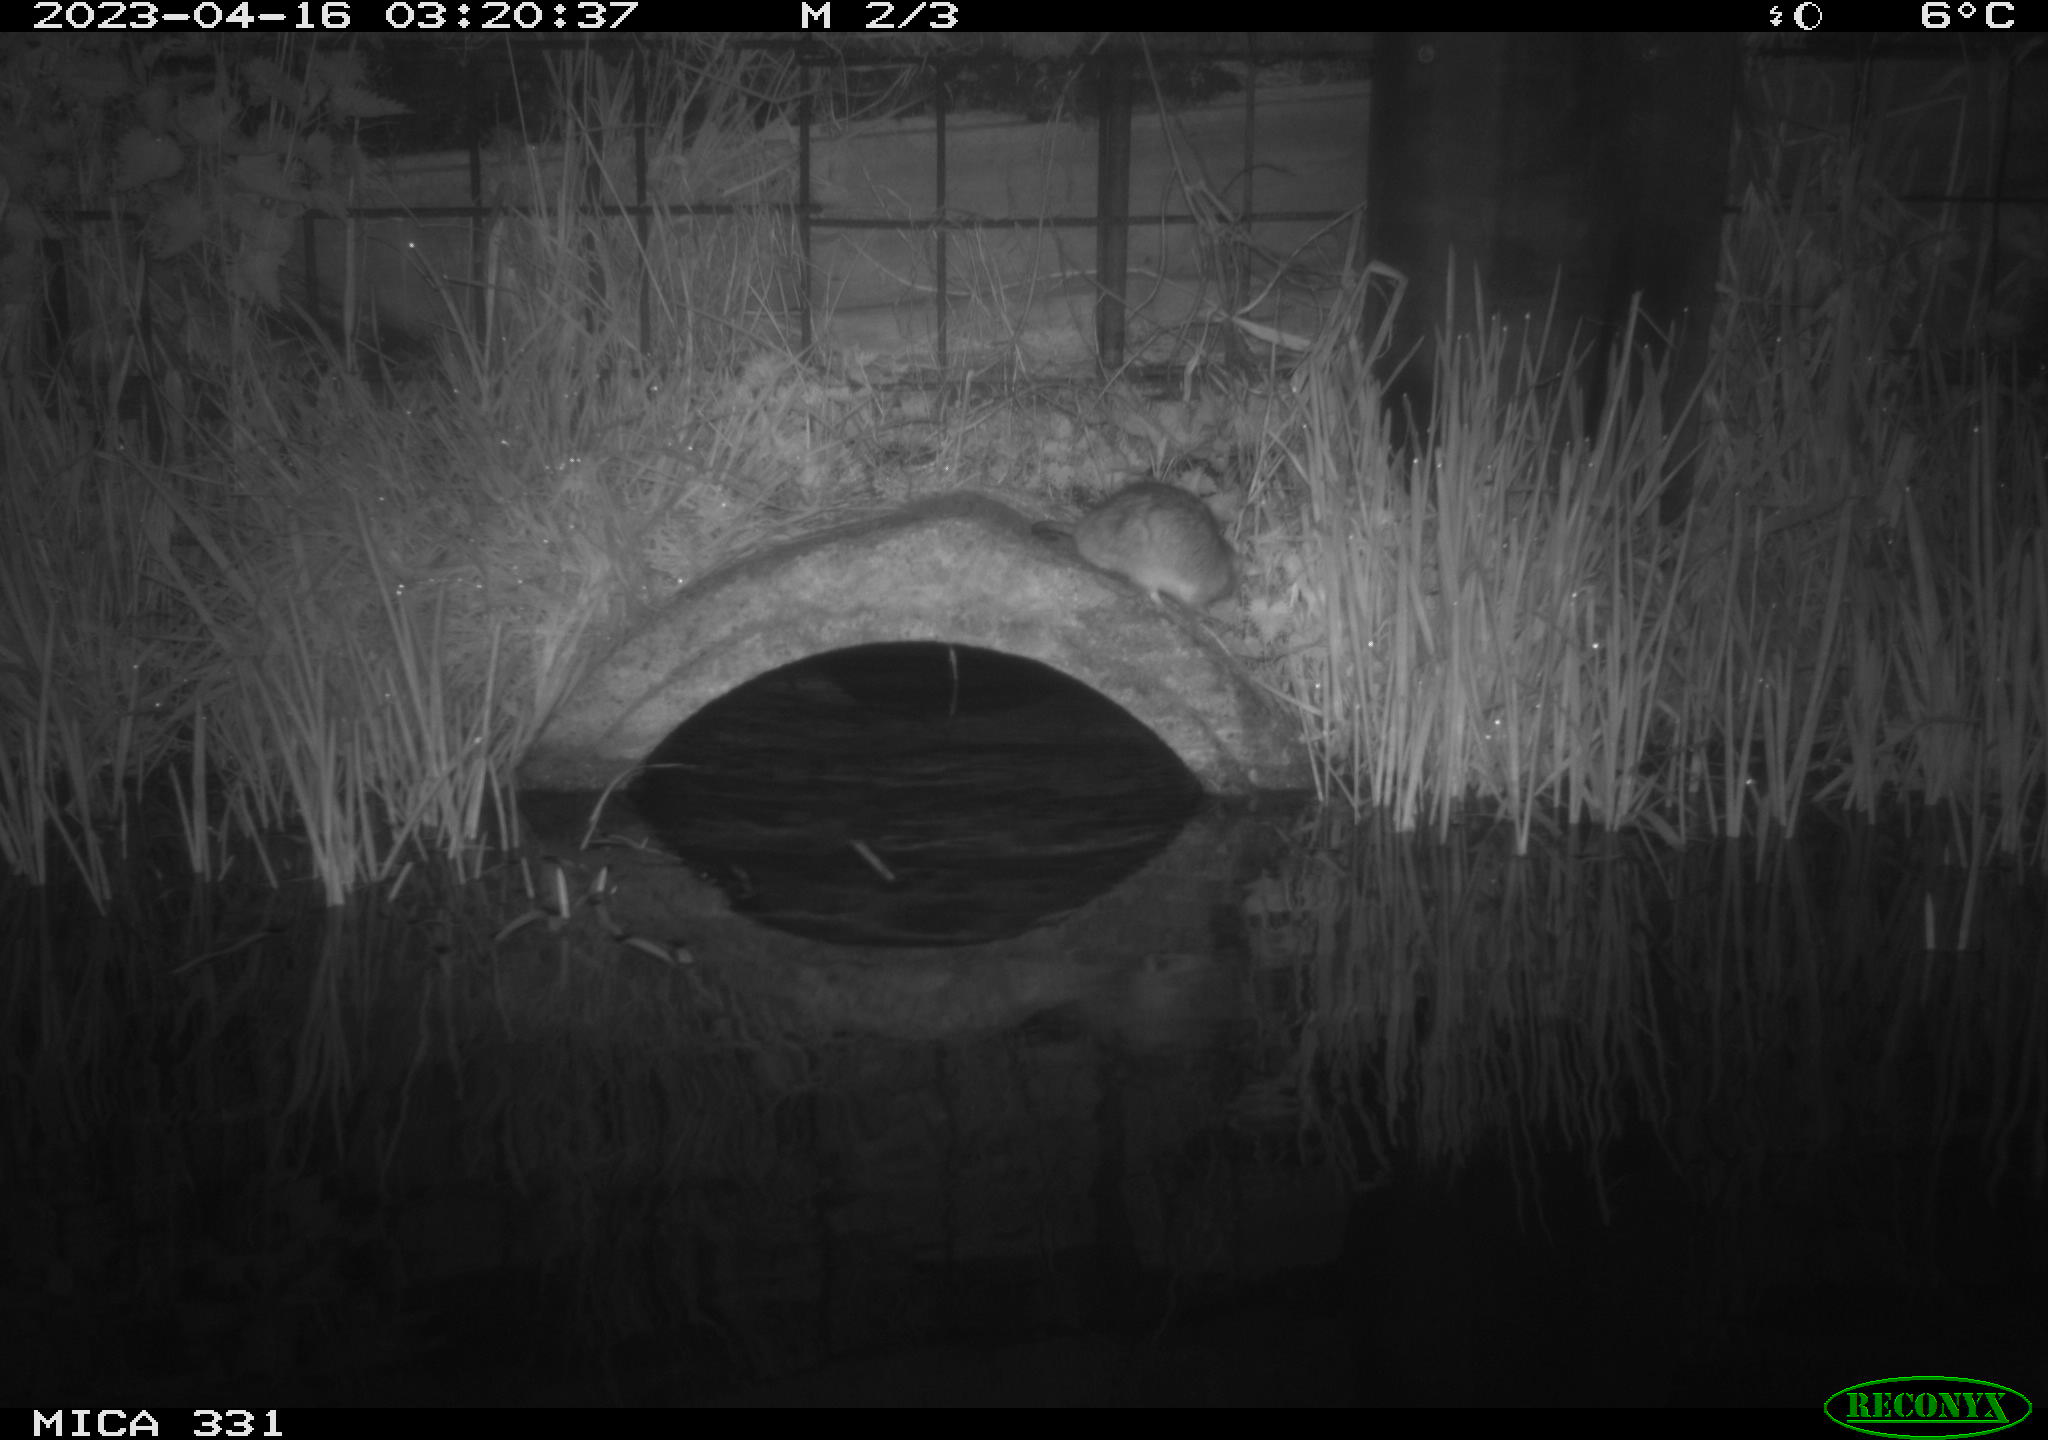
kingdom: Animalia
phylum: Chordata
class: Mammalia
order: Rodentia
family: Muridae
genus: Rattus
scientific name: Rattus norvegicus
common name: Brown rat
